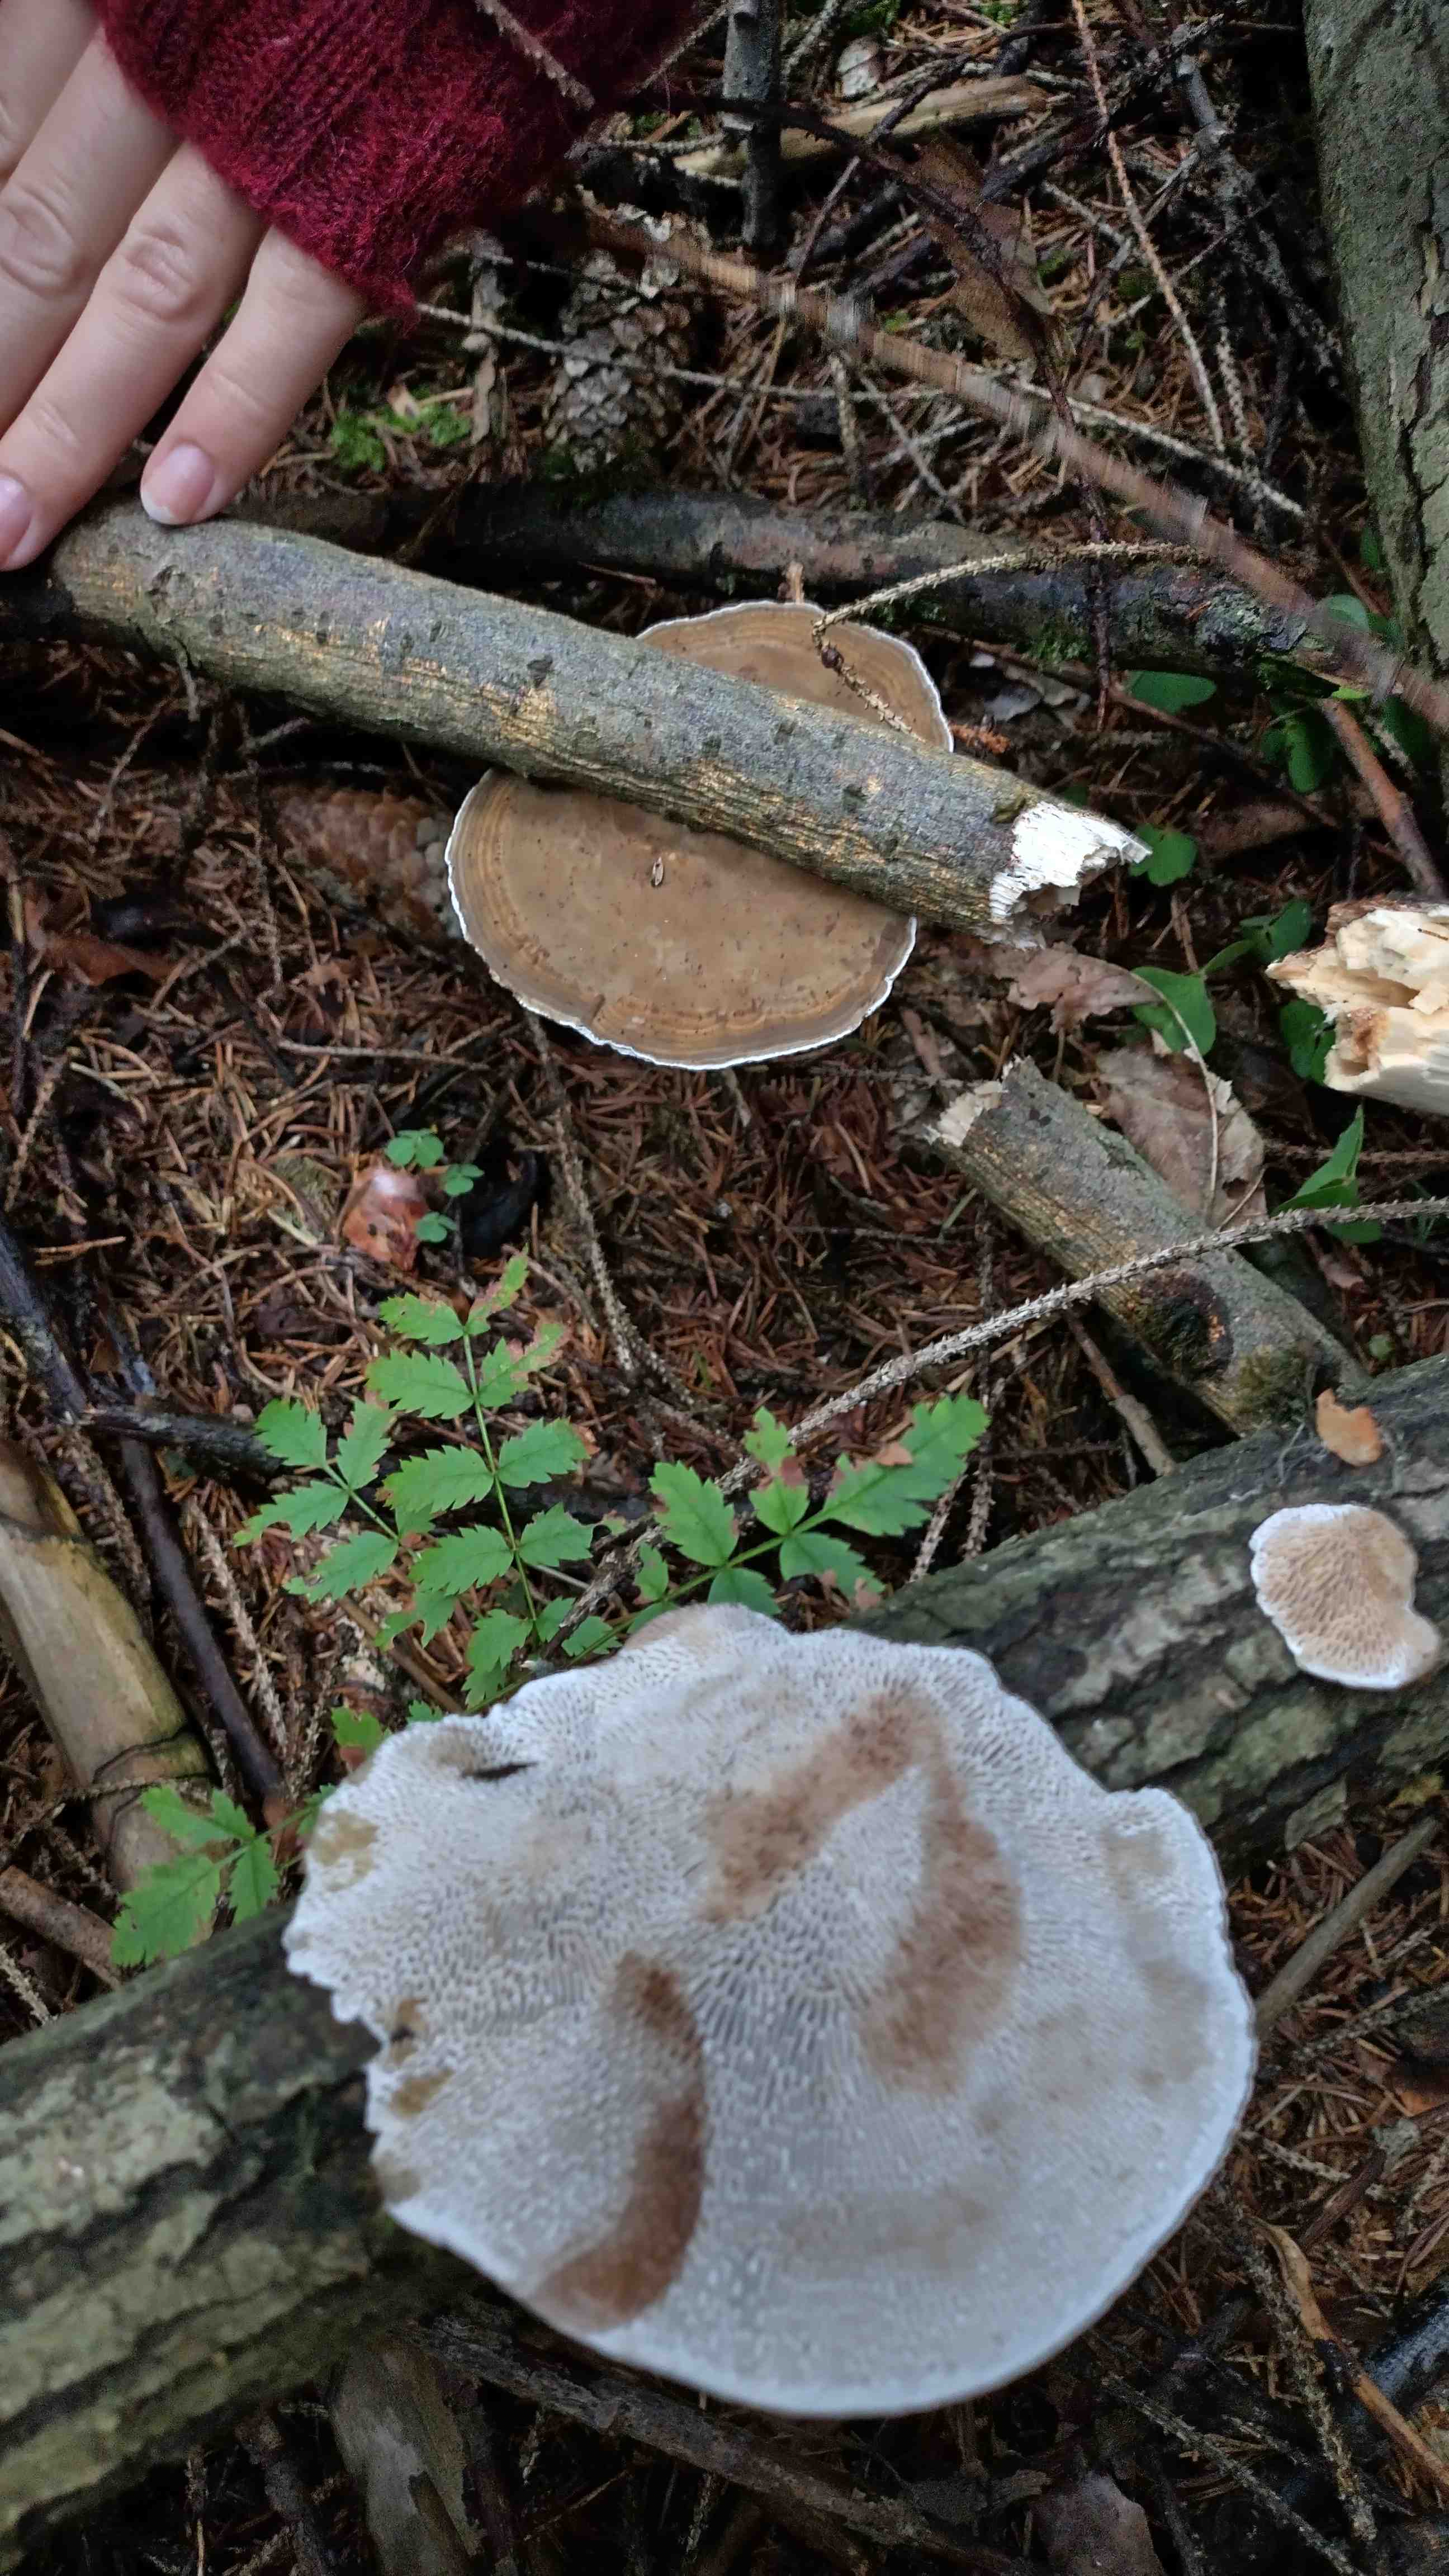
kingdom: Fungi
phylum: Basidiomycota
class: Agaricomycetes
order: Polyporales
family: Polyporaceae
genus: Daedaleopsis
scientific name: Daedaleopsis confragosa
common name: rødmende læderporesvamp
